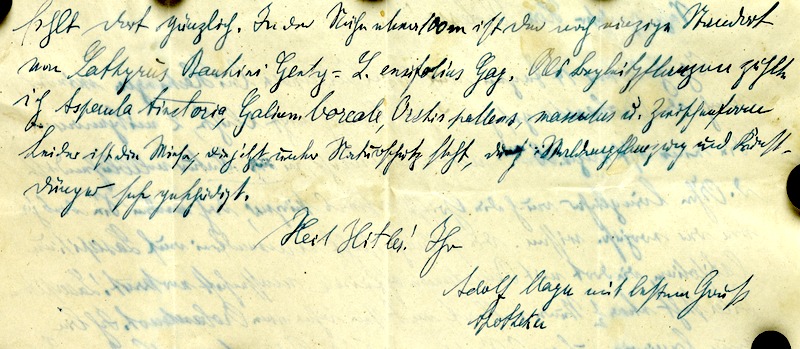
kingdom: Plantae
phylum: Tracheophyta
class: Magnoliopsida
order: Lamiales
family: Orobanchaceae
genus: Orobanche
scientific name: Orobanche mayeri
